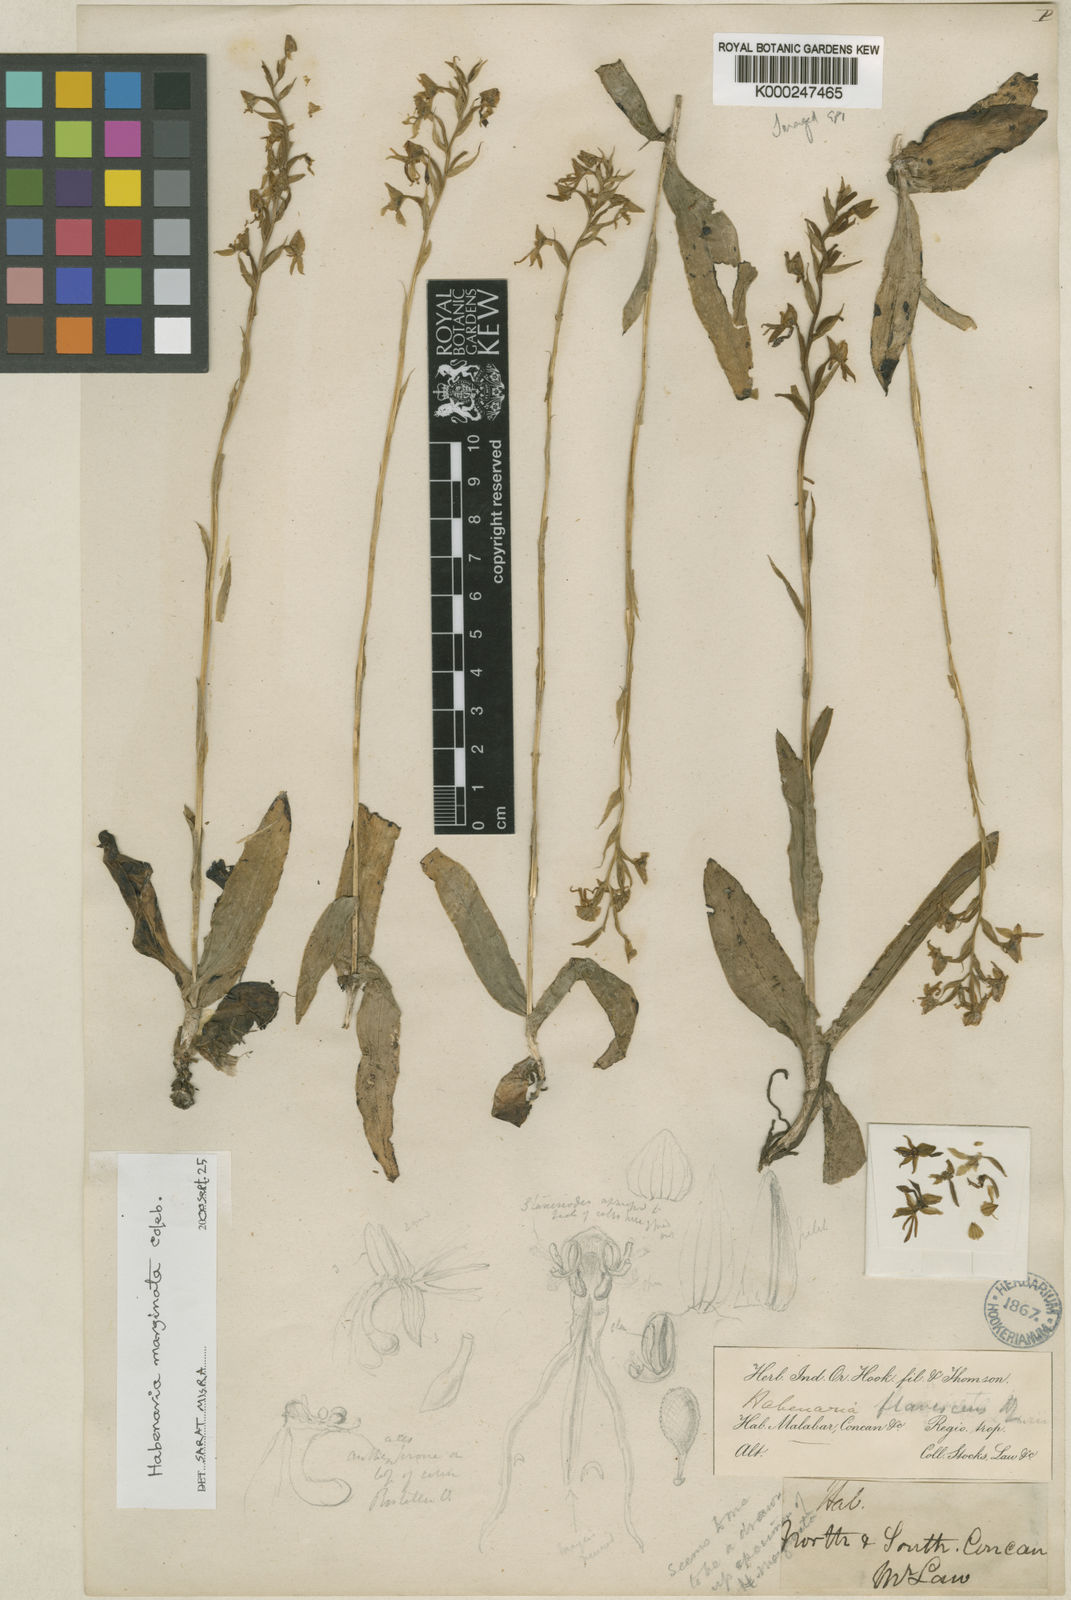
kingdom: Plantae
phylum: Tracheophyta
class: Liliopsida
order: Asparagales
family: Orchidaceae
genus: Habenaria
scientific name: Habenaria marginata
